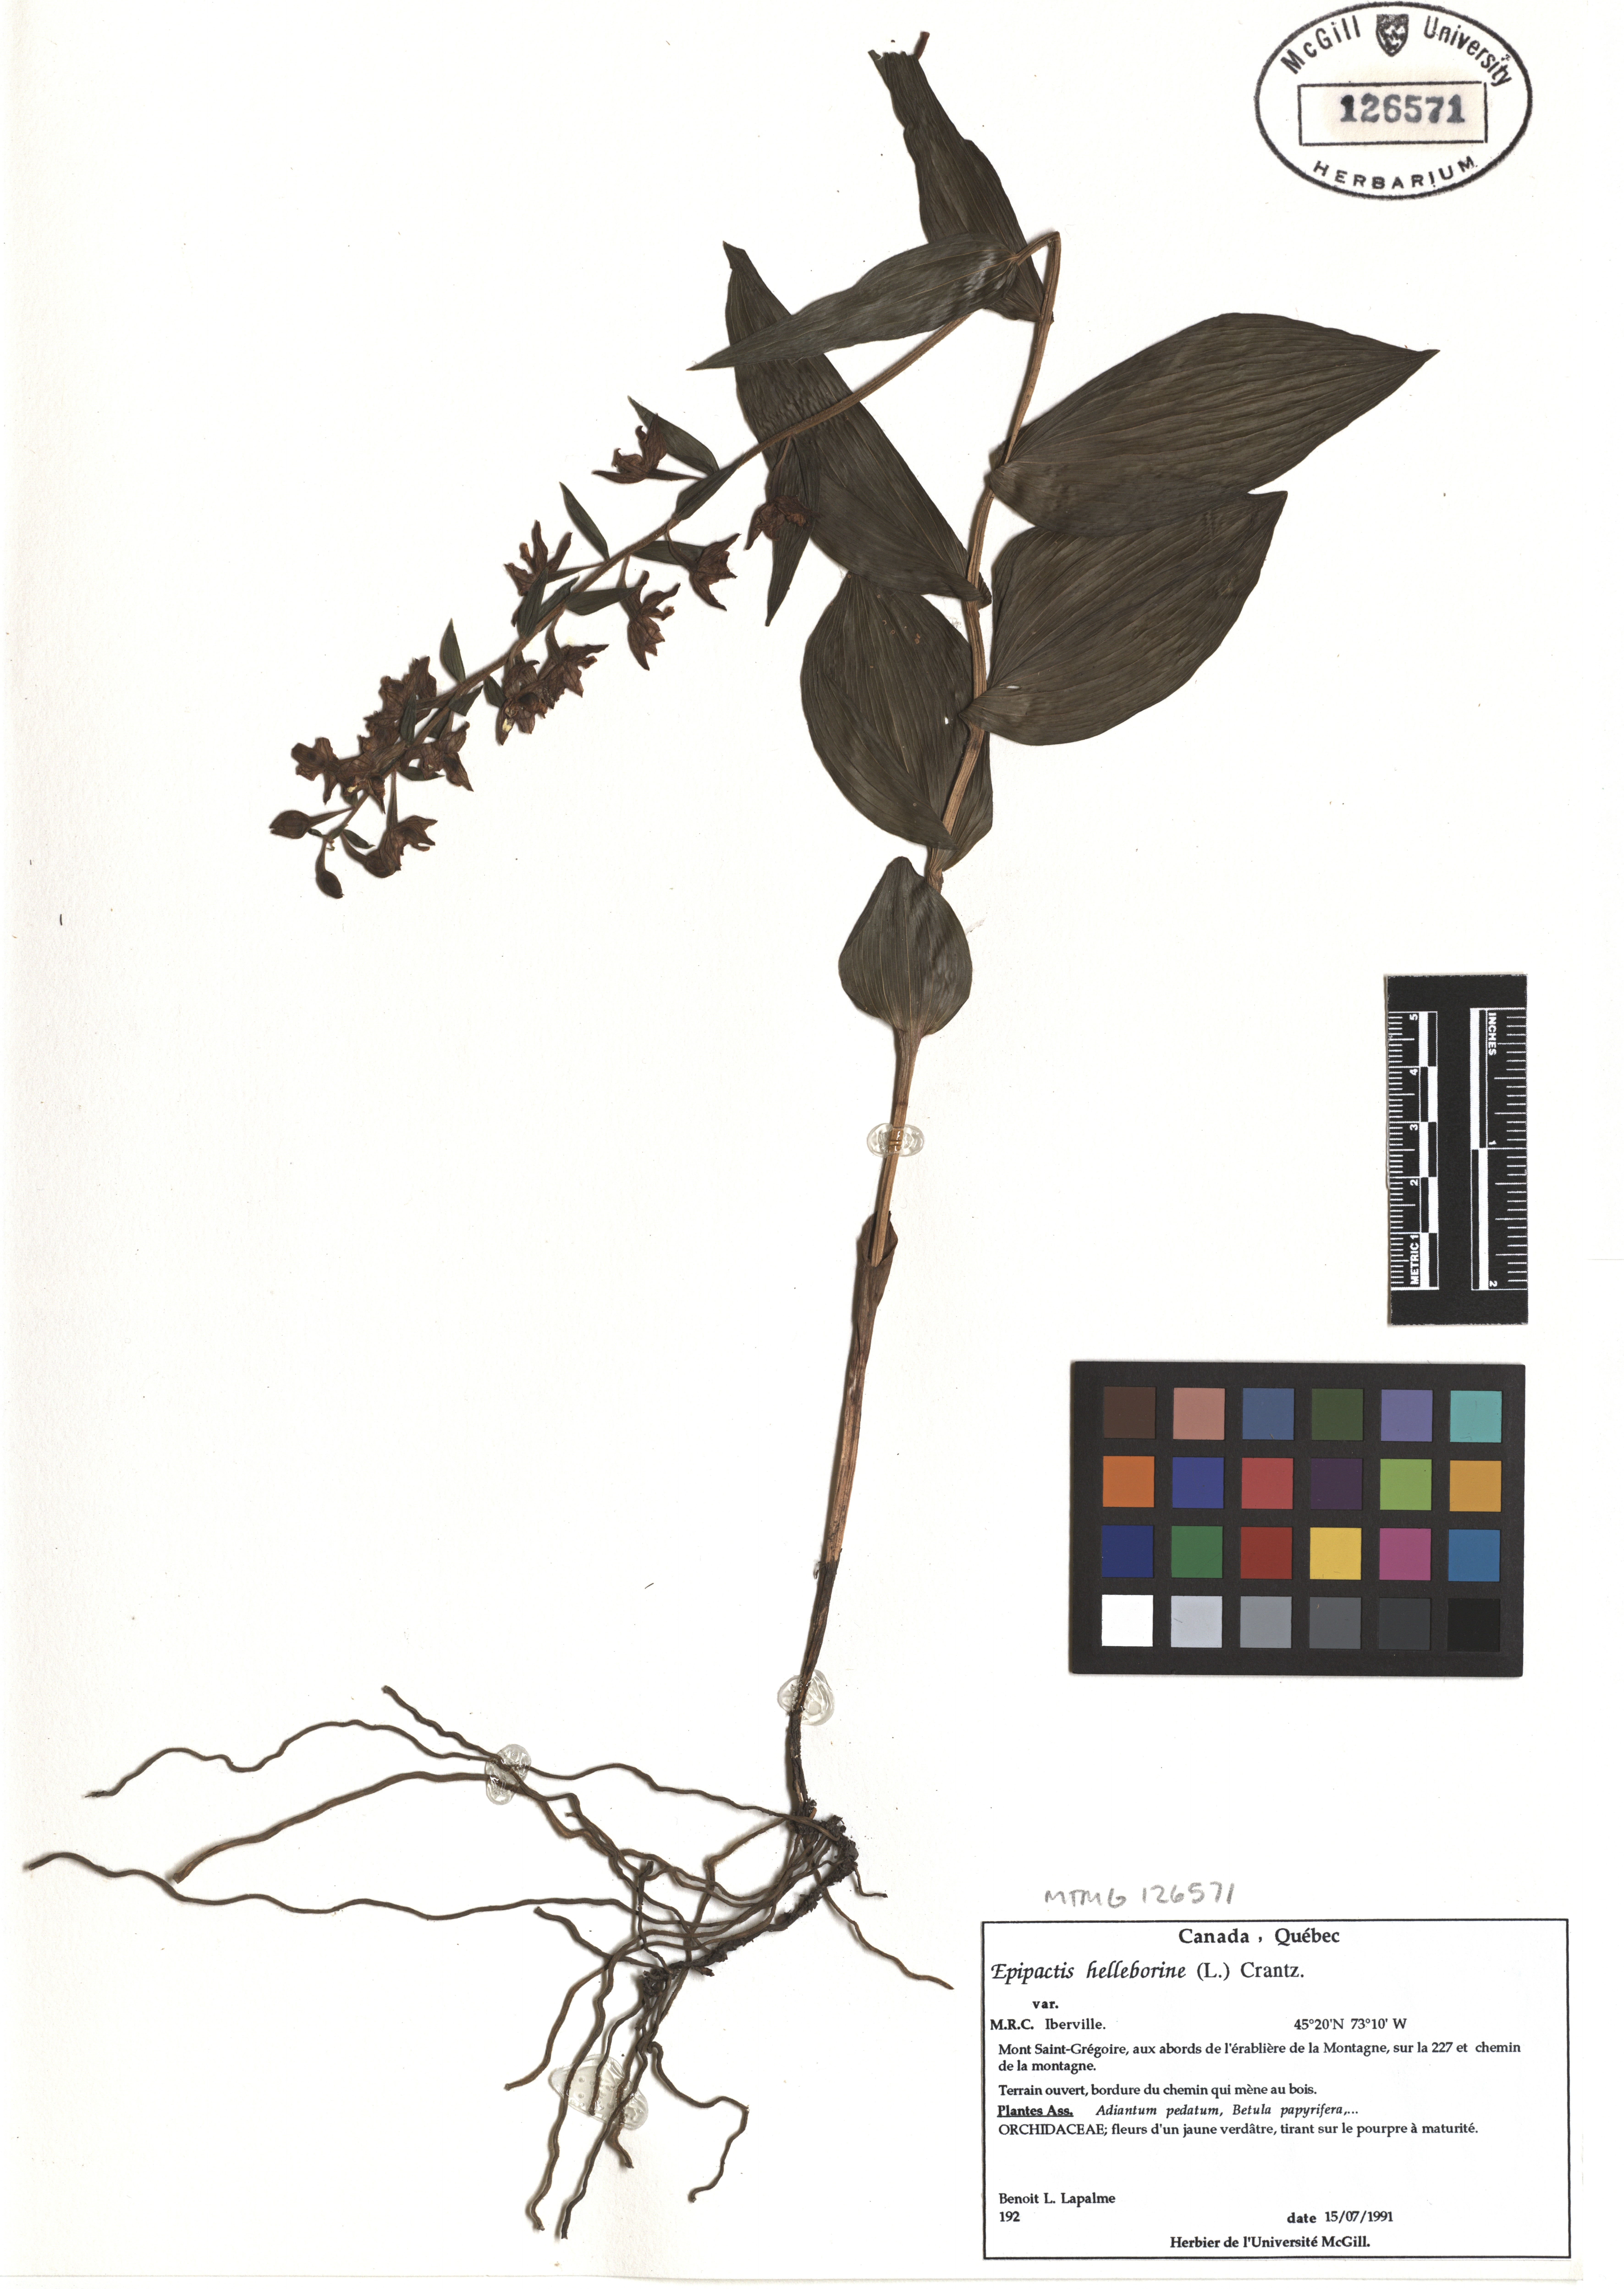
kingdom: Plantae
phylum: Tracheophyta
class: Liliopsida
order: Asparagales
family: Orchidaceae
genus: Epipactis
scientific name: Epipactis helleborine
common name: Broad-leaved helleborine
